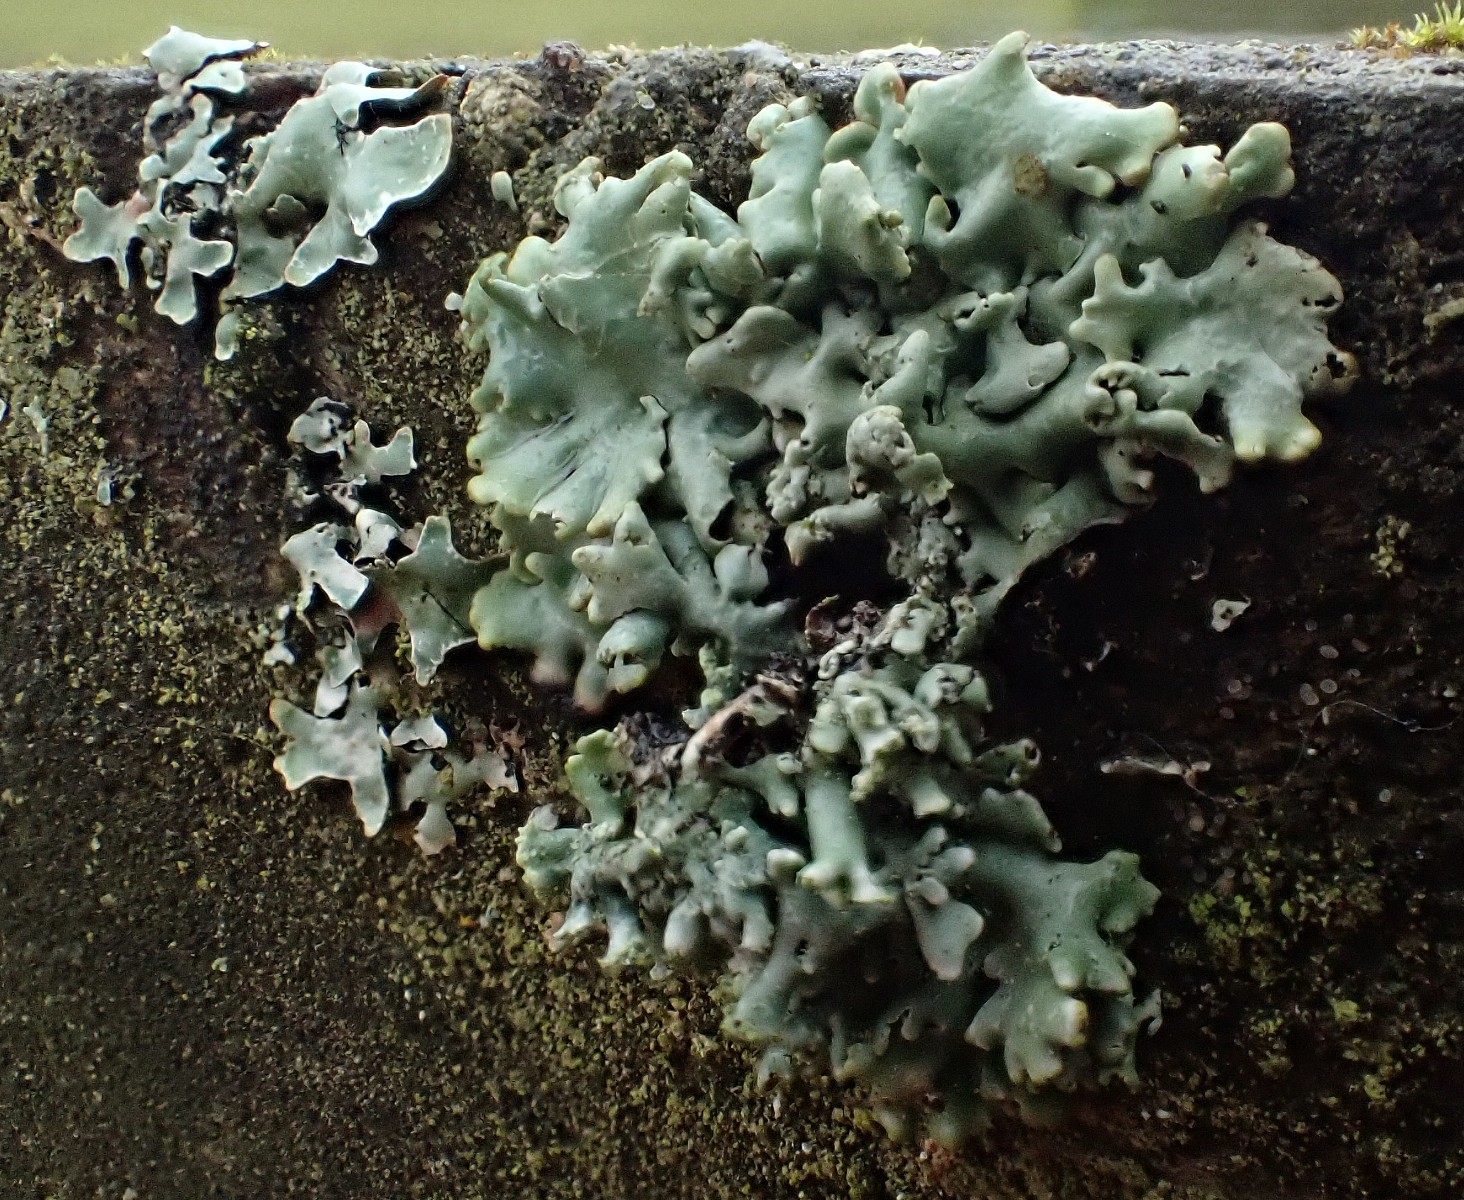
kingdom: Fungi
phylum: Ascomycota
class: Lecanoromycetes
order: Lecanorales
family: Parmeliaceae
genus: Hypogymnia
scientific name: Hypogymnia physodes
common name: almindelig kvistlav
